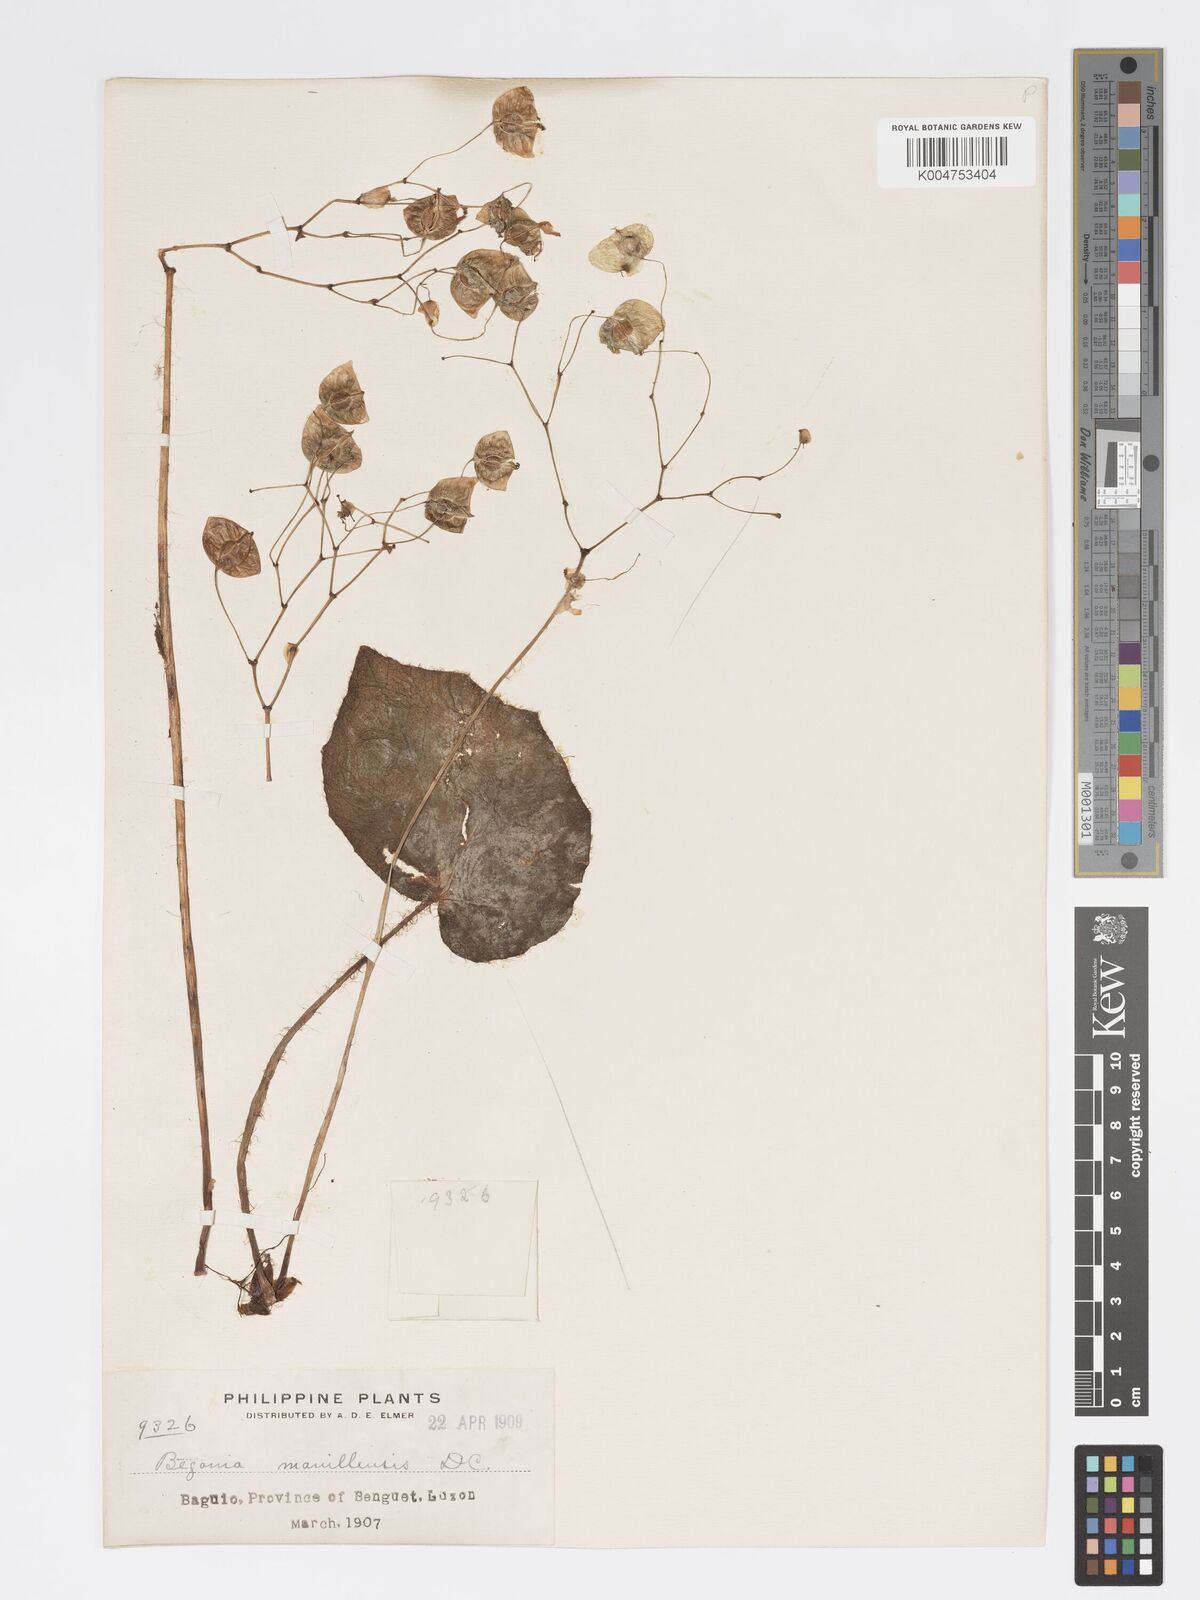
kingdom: Plantae
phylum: Tracheophyta
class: Magnoliopsida
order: Cucurbitales
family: Begoniaceae
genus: Begonia
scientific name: Begonia manillensis
